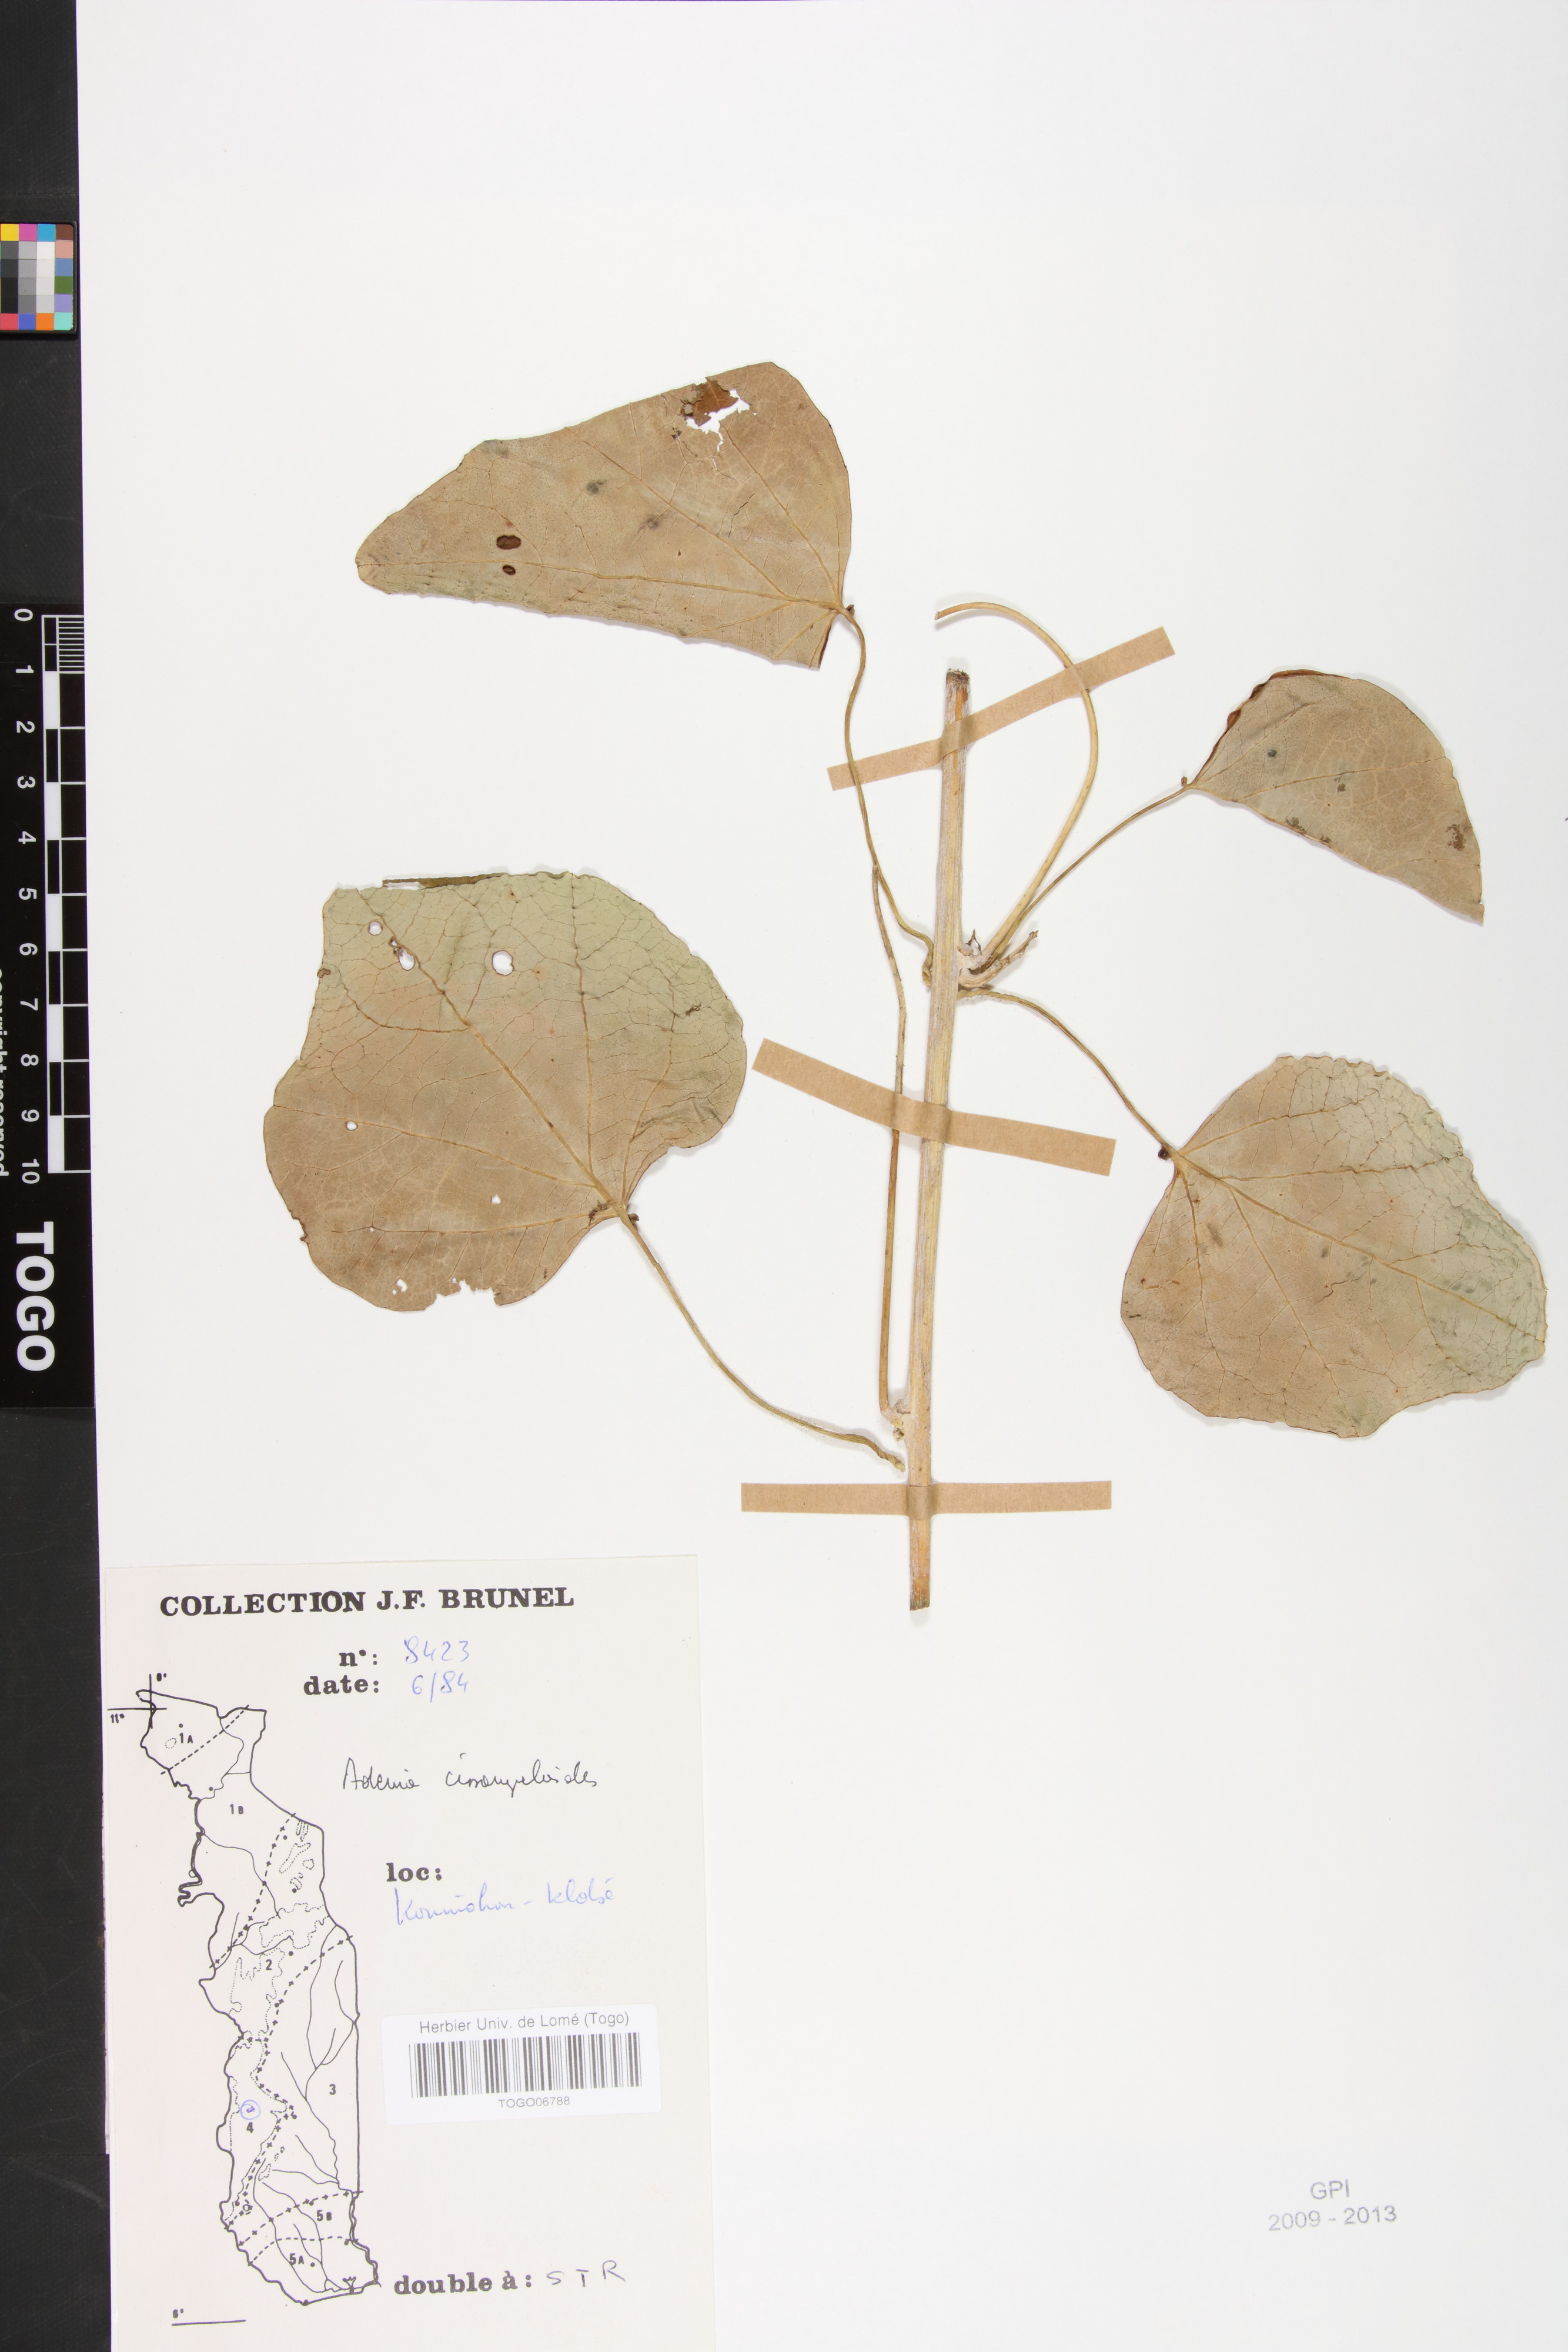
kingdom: Plantae
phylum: Tracheophyta
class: Magnoliopsida
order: Malpighiales
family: Passifloraceae
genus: Adenia
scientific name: Adenia cissampeloides
